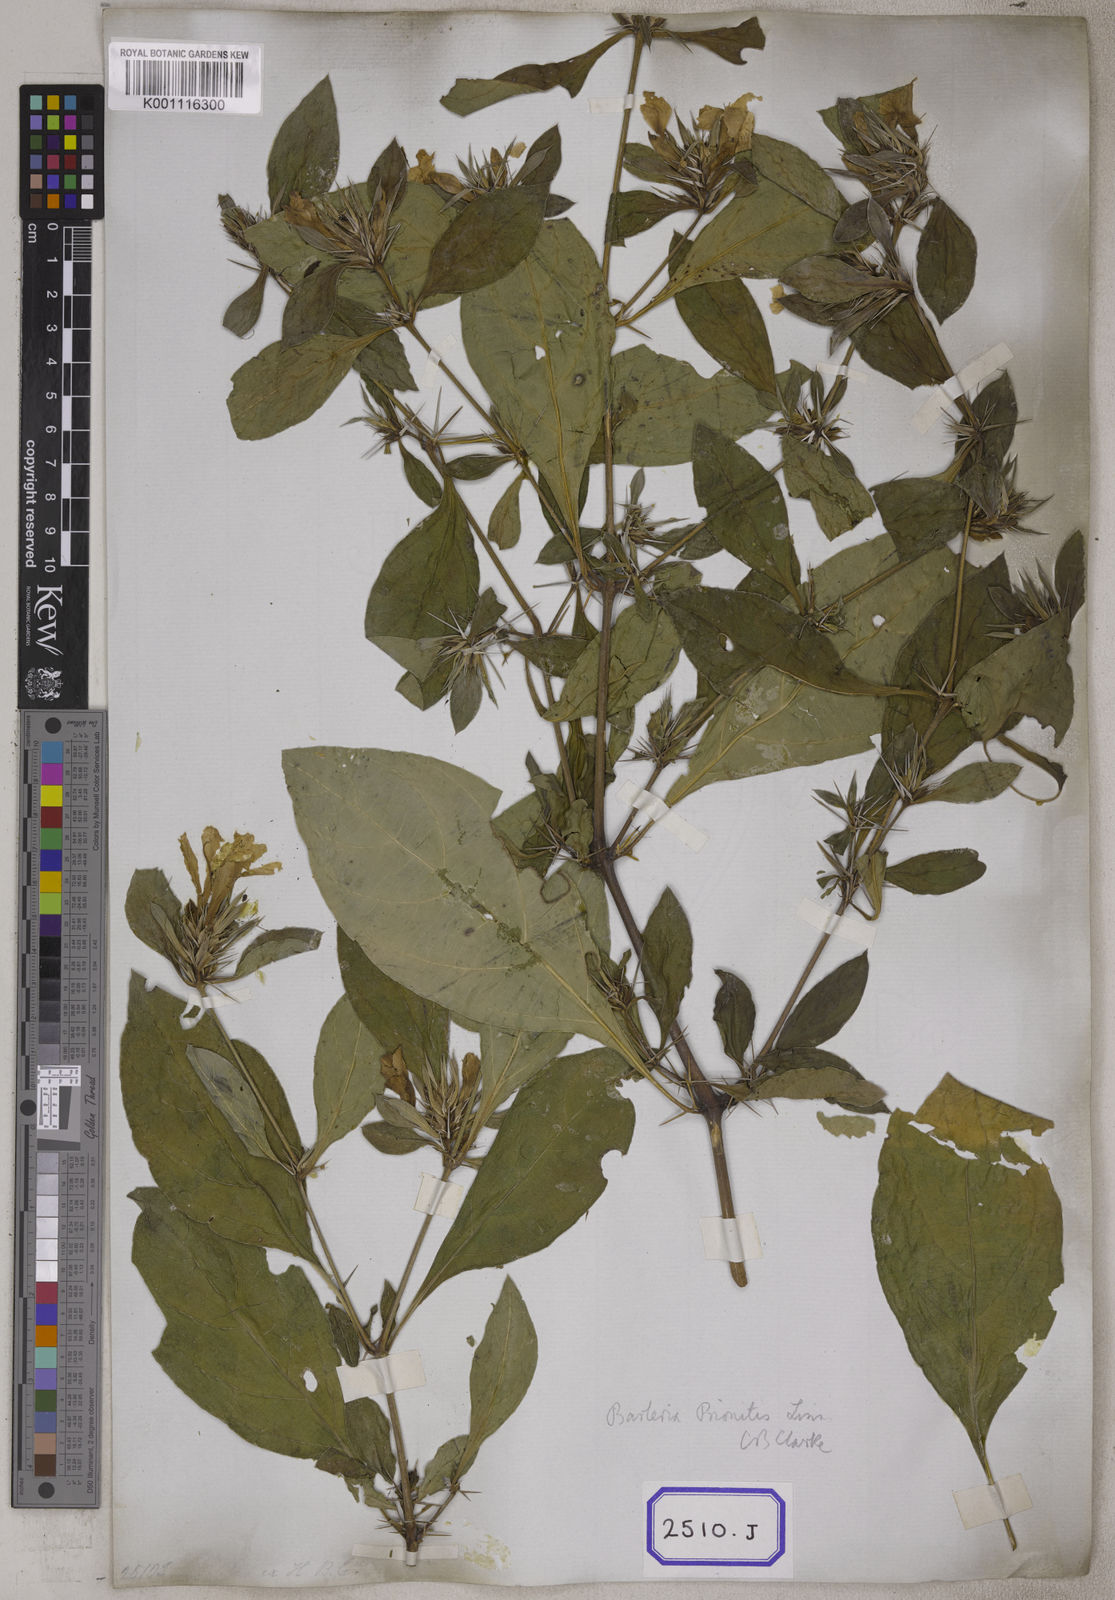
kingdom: Plantae
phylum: Tracheophyta
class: Magnoliopsida
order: Lamiales
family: Acanthaceae
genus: Barleria
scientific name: Barleria prionitis
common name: Barleria
